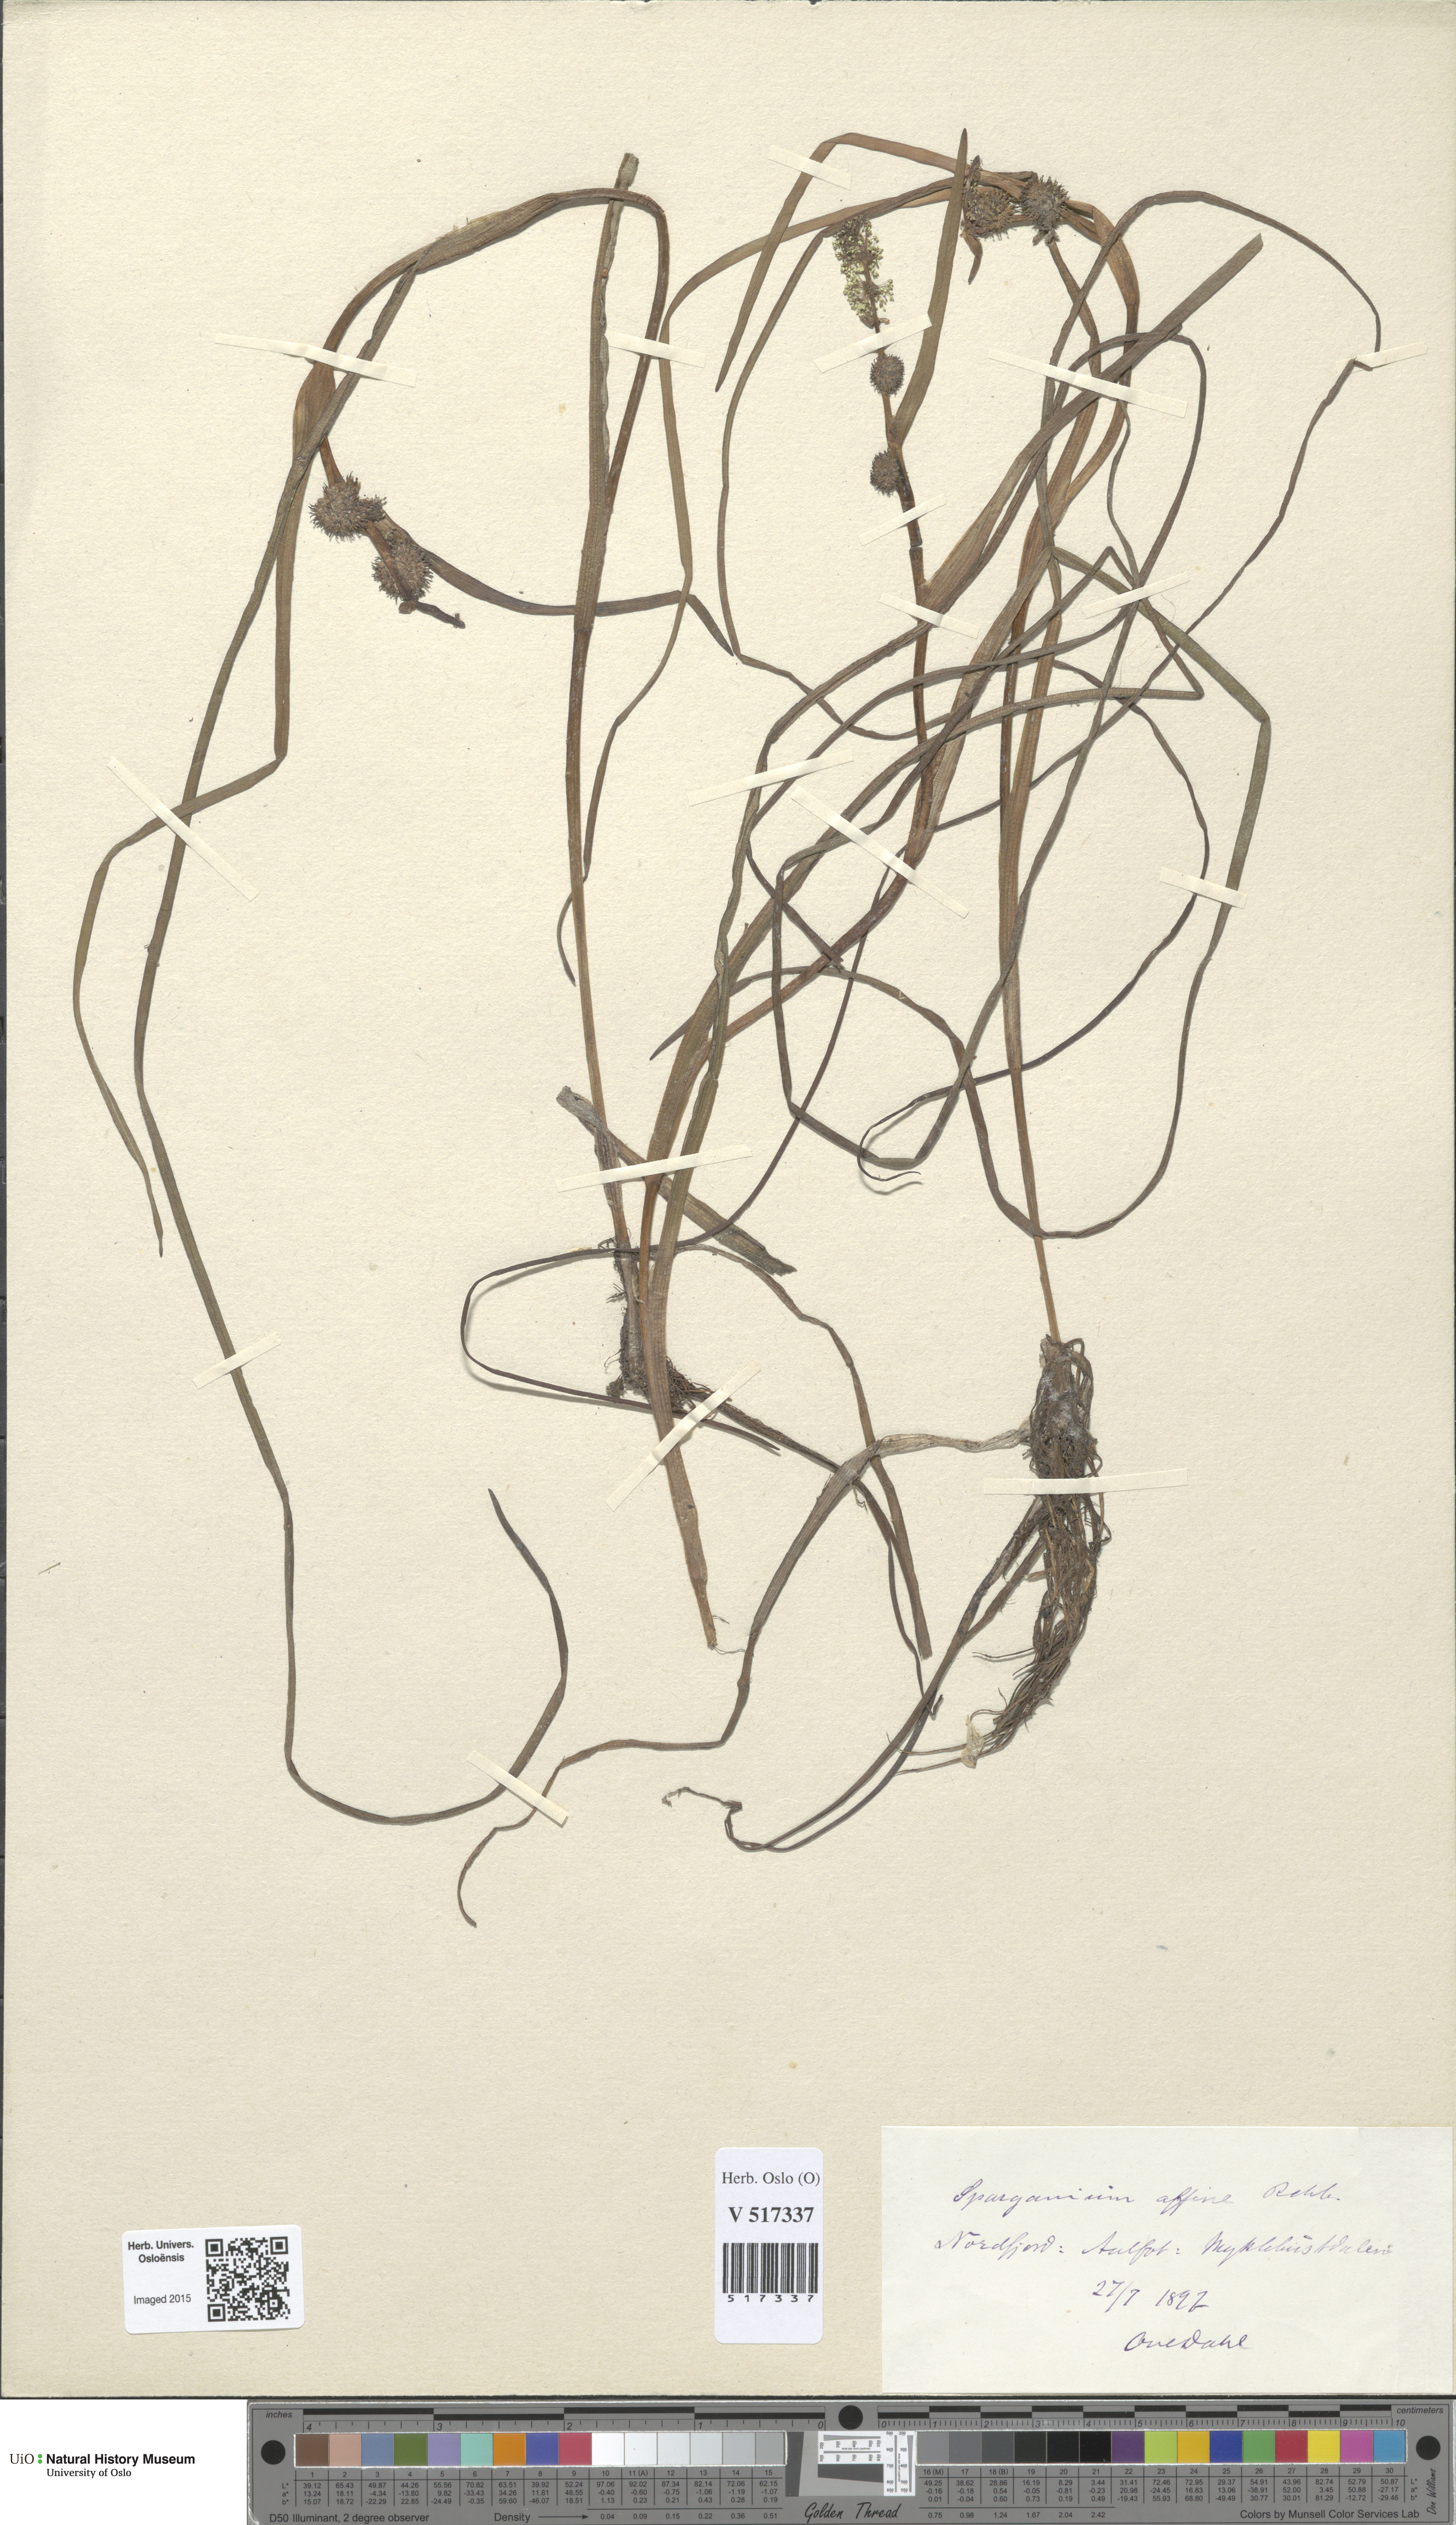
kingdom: Plantae
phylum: Tracheophyta
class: Liliopsida
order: Poales
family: Typhaceae
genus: Sparganium
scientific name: Sparganium angustifolium
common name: Floating bur-reed
